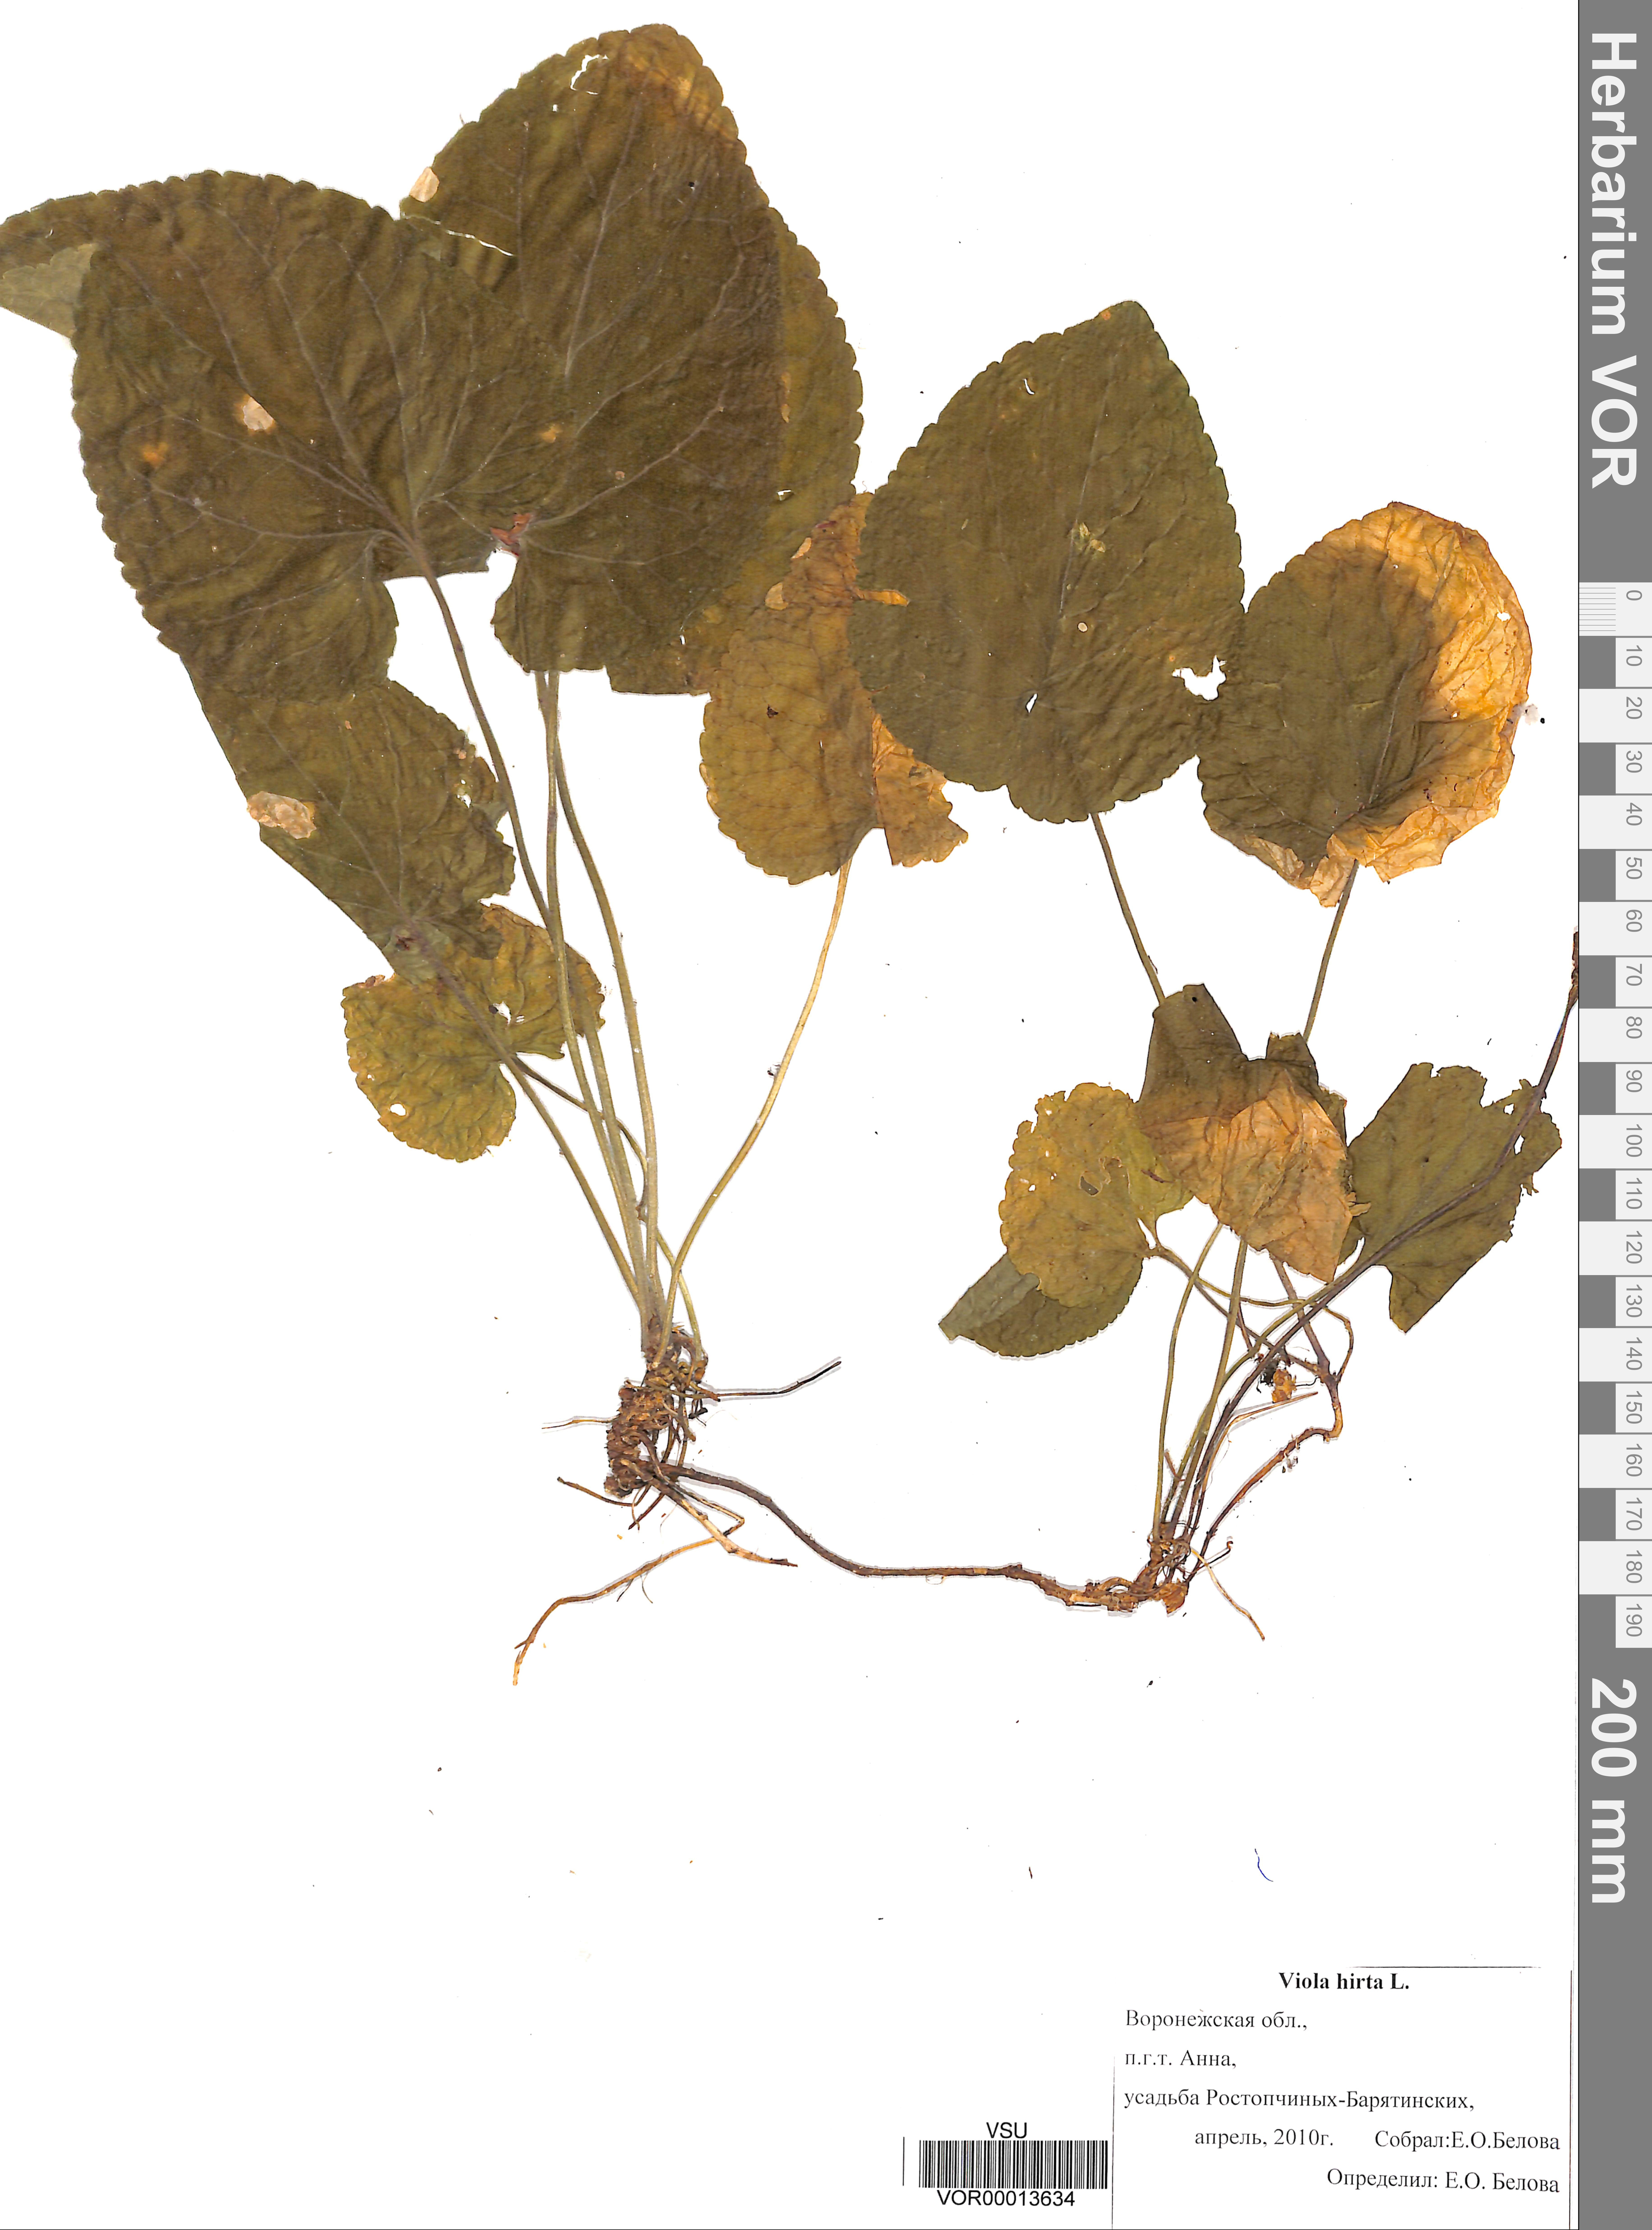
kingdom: Plantae
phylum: Tracheophyta
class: Magnoliopsida
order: Malpighiales
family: Violaceae
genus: Viola
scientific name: Viola hirta
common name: Hairy violet
